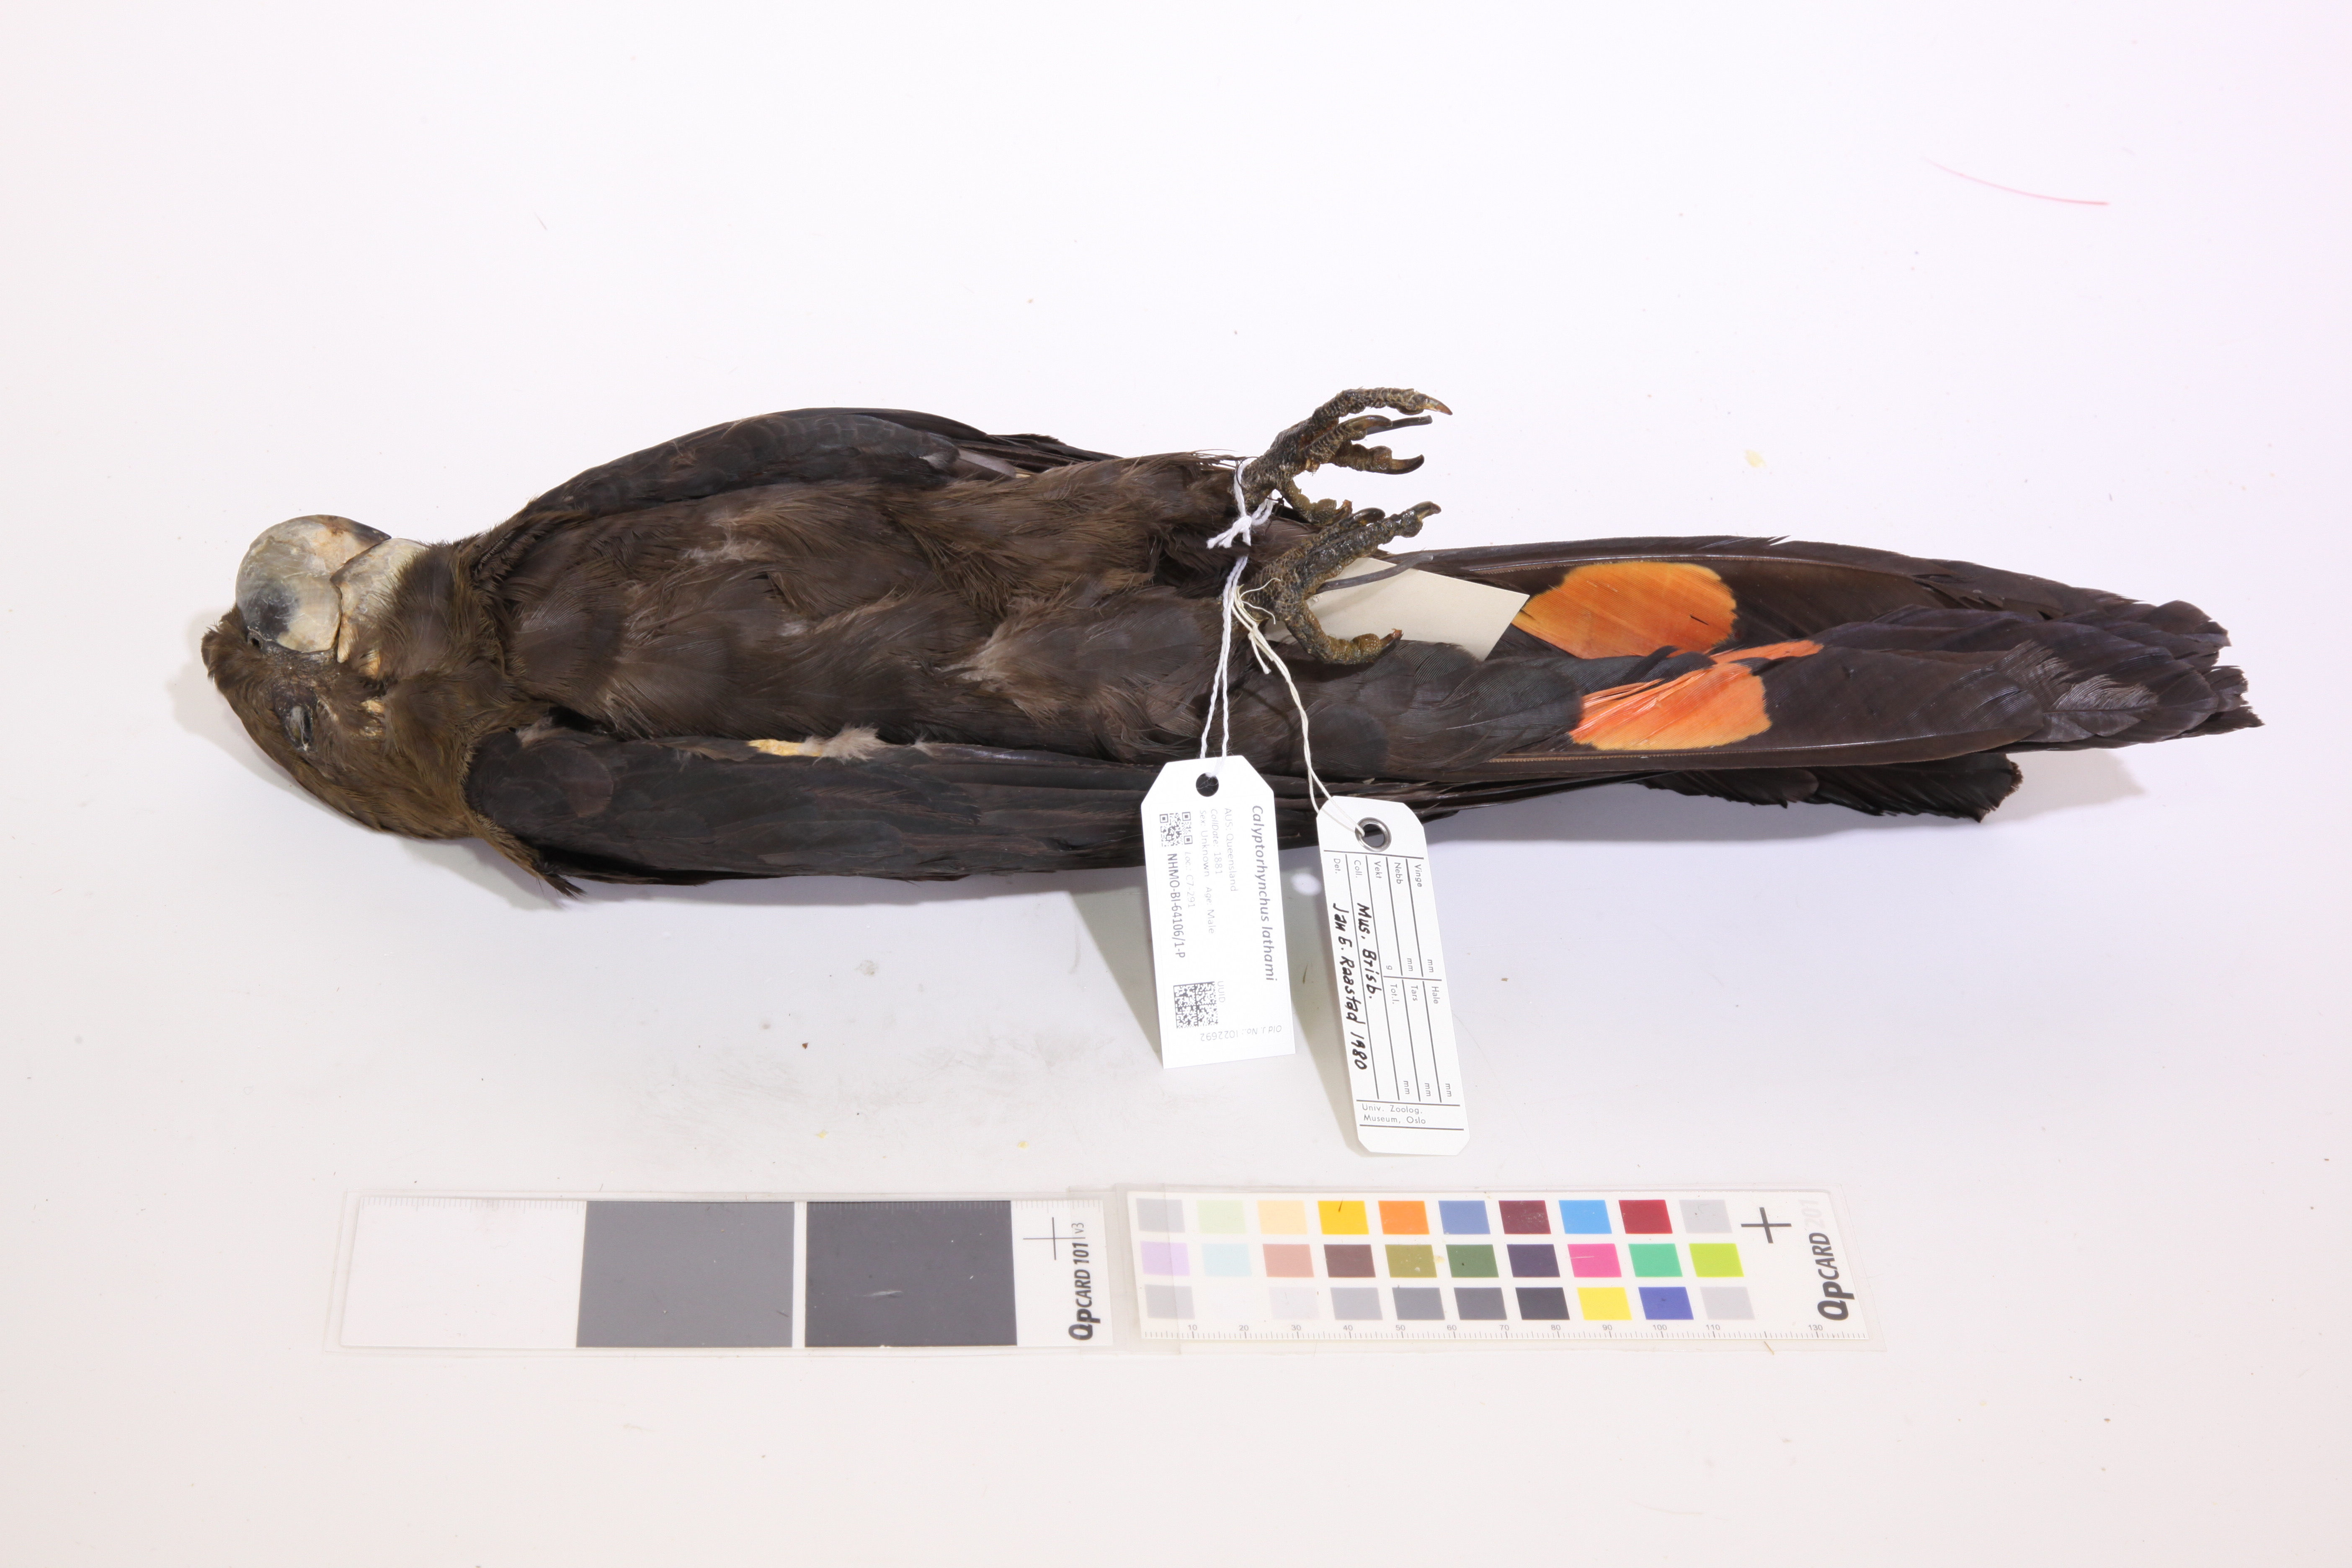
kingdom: Animalia
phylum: Chordata
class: Aves
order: Psittaciformes
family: Psittacidae
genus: Calyptorhynchus
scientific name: Calyptorhynchus lathami
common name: Glossy black cockatoo
